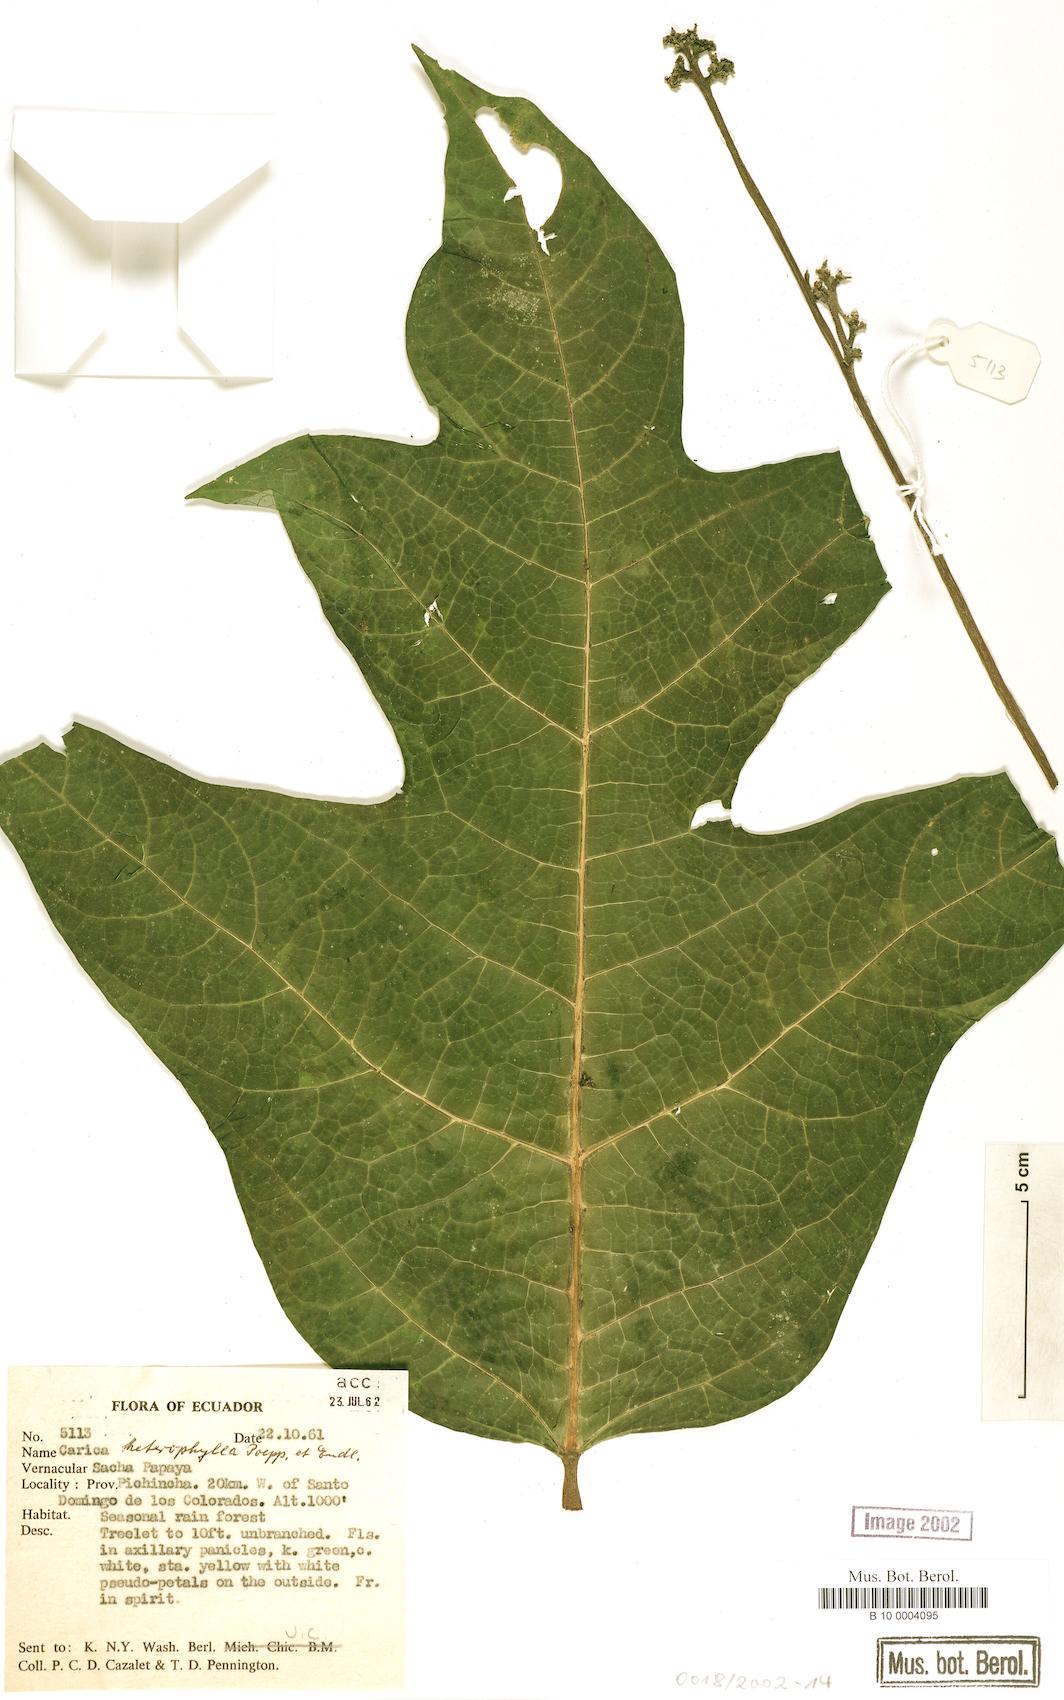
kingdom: Plantae
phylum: Tracheophyta
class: Magnoliopsida
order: Brassicales
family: Caricaceae
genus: Vasconcellea
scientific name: Vasconcellea microcarpa
